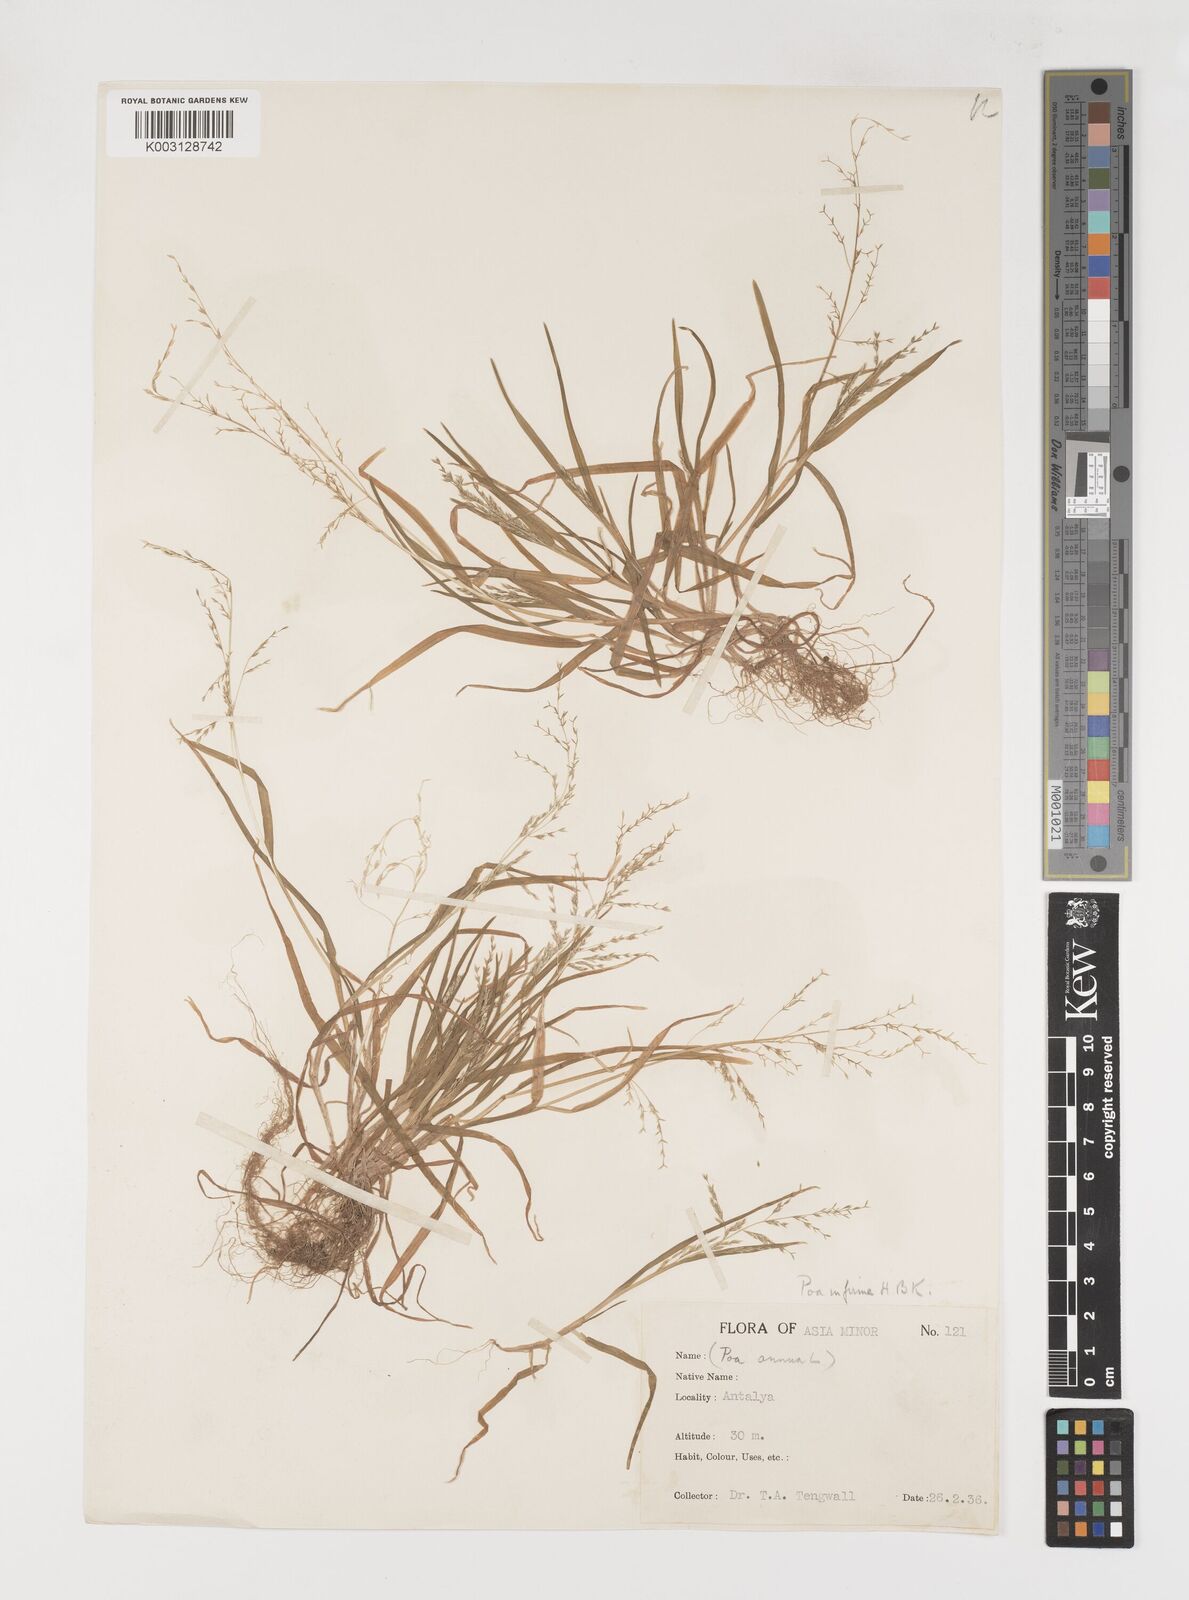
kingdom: Plantae
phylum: Tracheophyta
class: Liliopsida
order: Poales
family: Poaceae
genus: Poa
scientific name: Poa infirma
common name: Weak bluegrass
